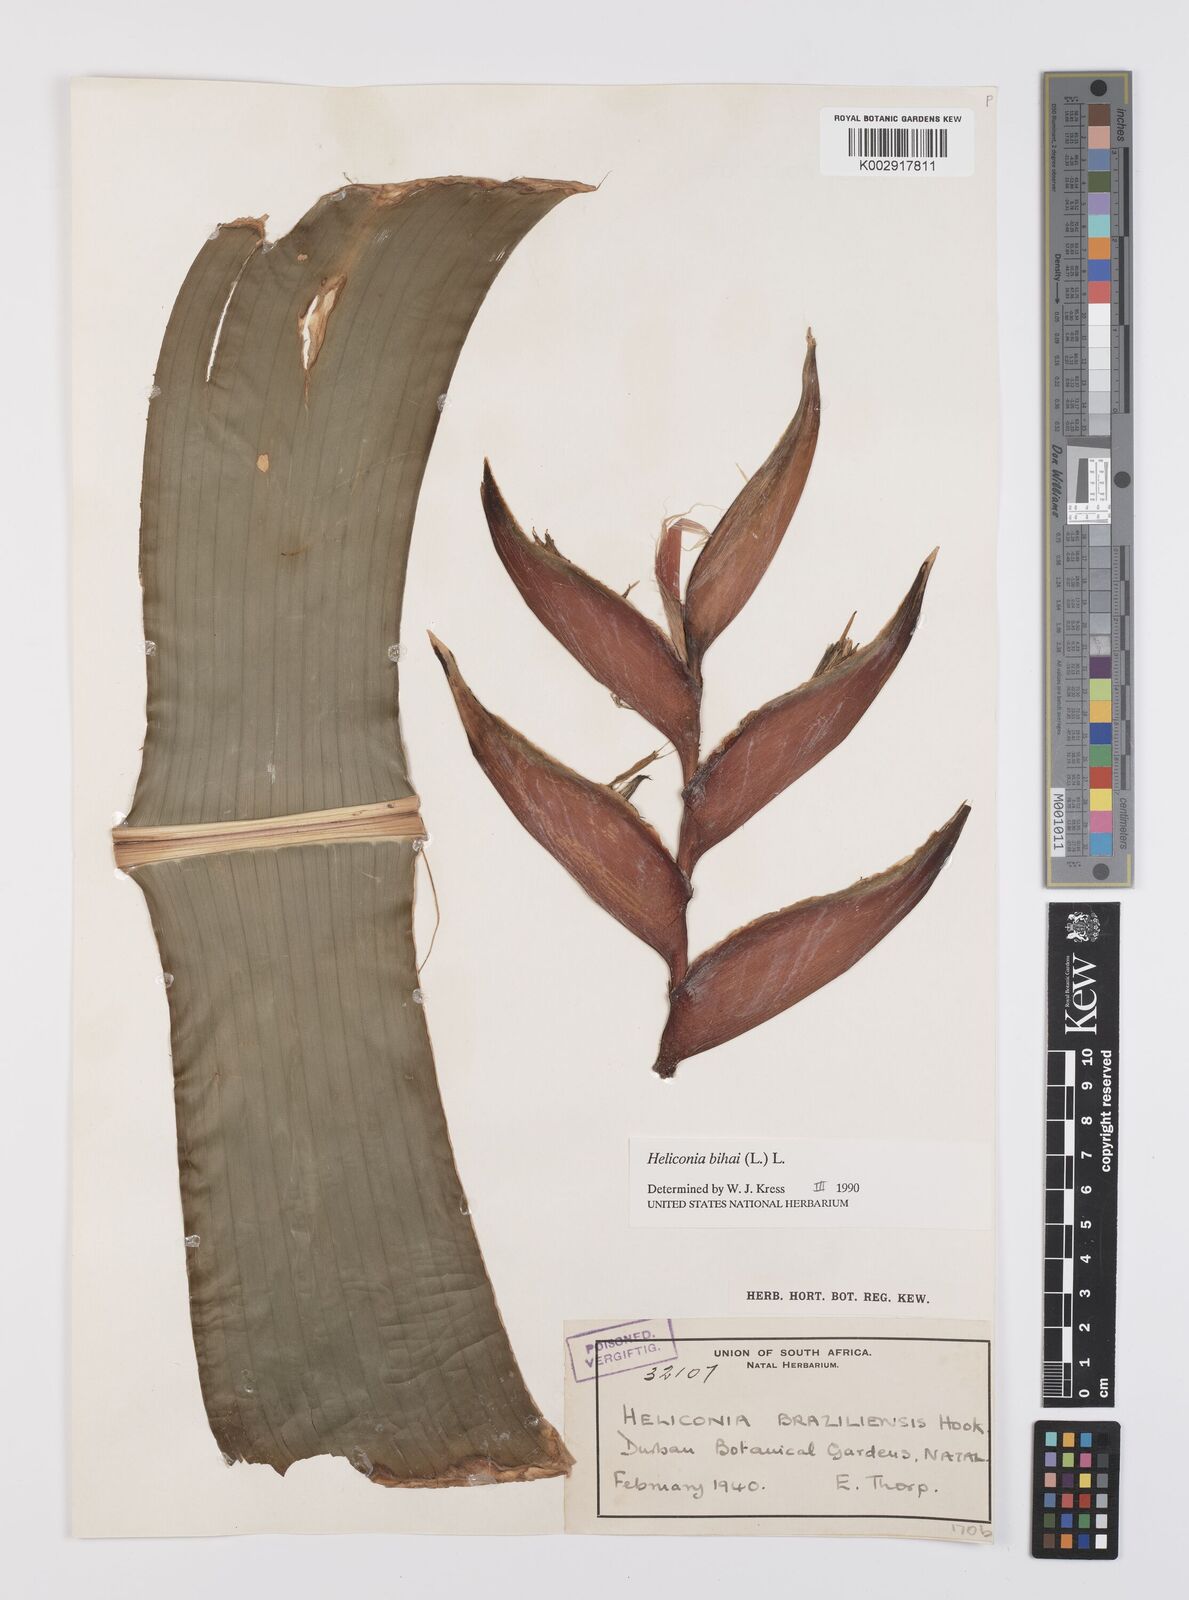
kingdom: Plantae
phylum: Tracheophyta
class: Liliopsida
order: Zingiberales
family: Heliconiaceae
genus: Heliconia
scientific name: Heliconia bihai
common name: Macaw flower
